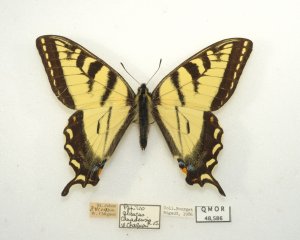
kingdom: Animalia
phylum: Arthropoda
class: Insecta
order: Lepidoptera
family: Papilionidae
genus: Pterourus
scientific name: Pterourus canadensis
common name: Canadian Tiger Swallowtail
